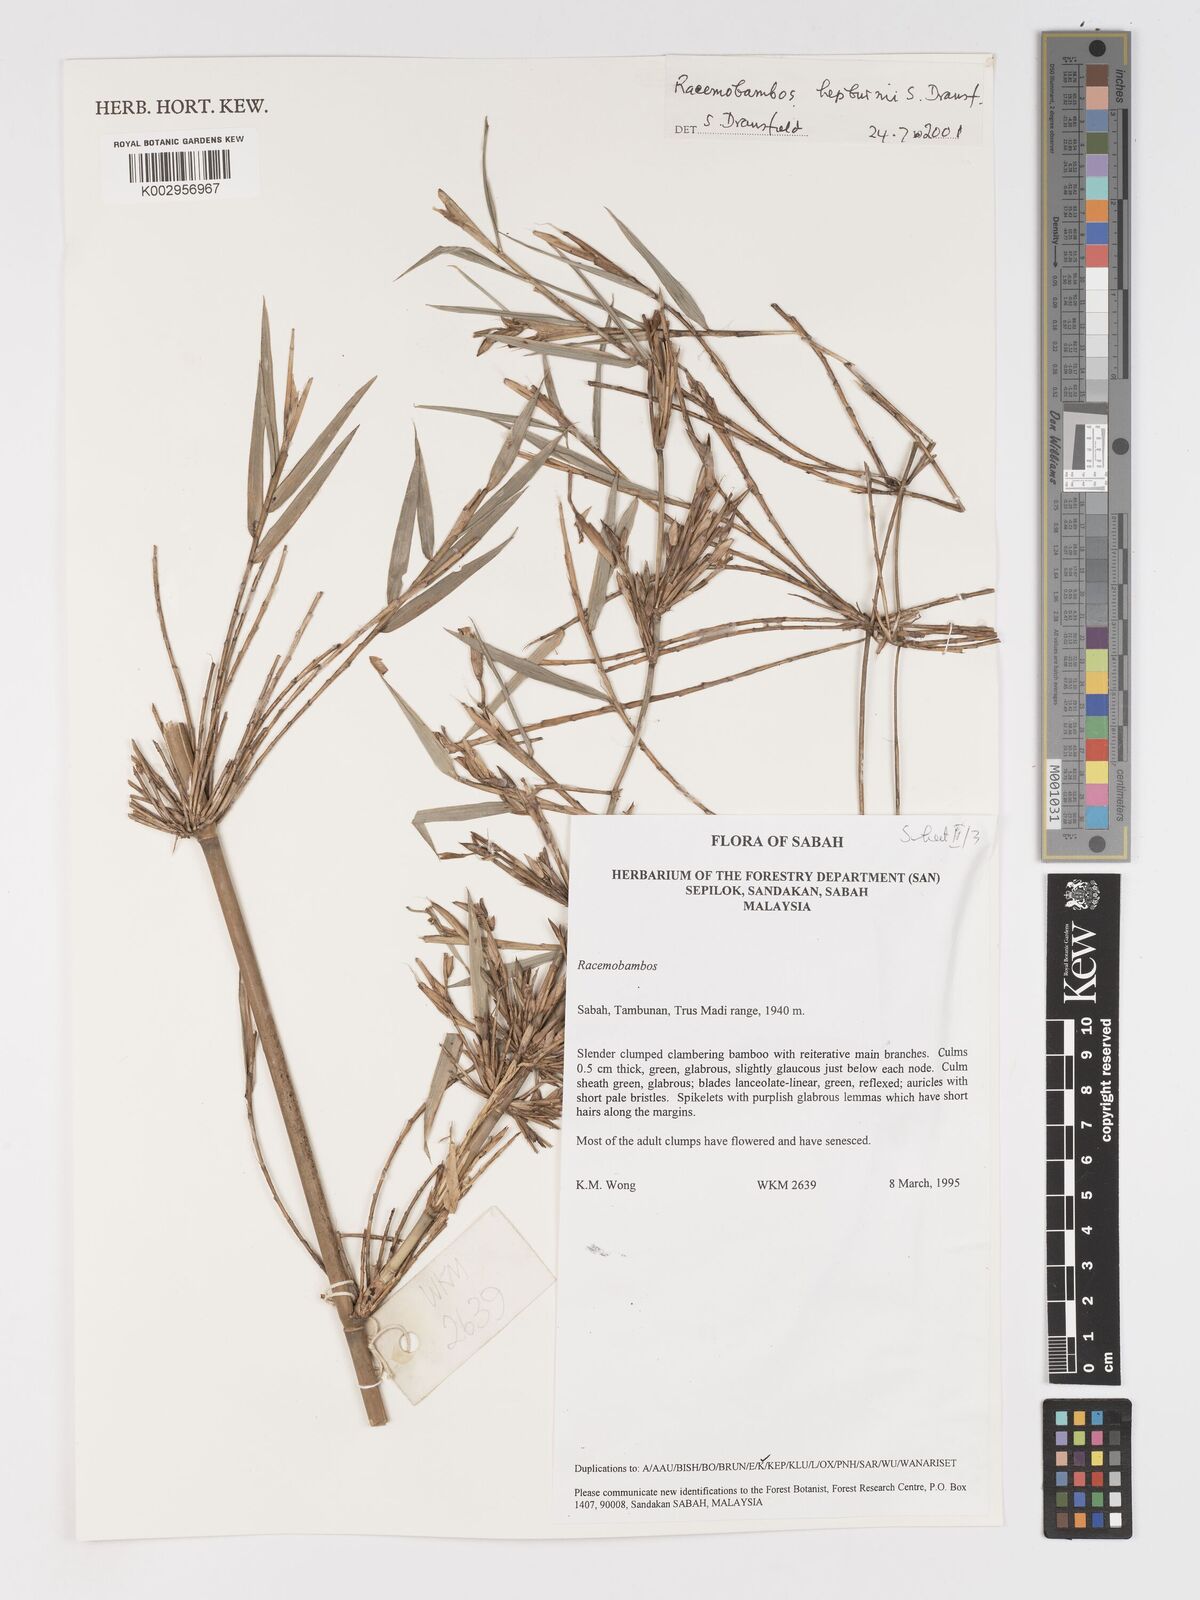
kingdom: Plantae
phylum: Tracheophyta
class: Liliopsida
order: Poales
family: Poaceae
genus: Racemobambos
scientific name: Racemobambos hepburnii
